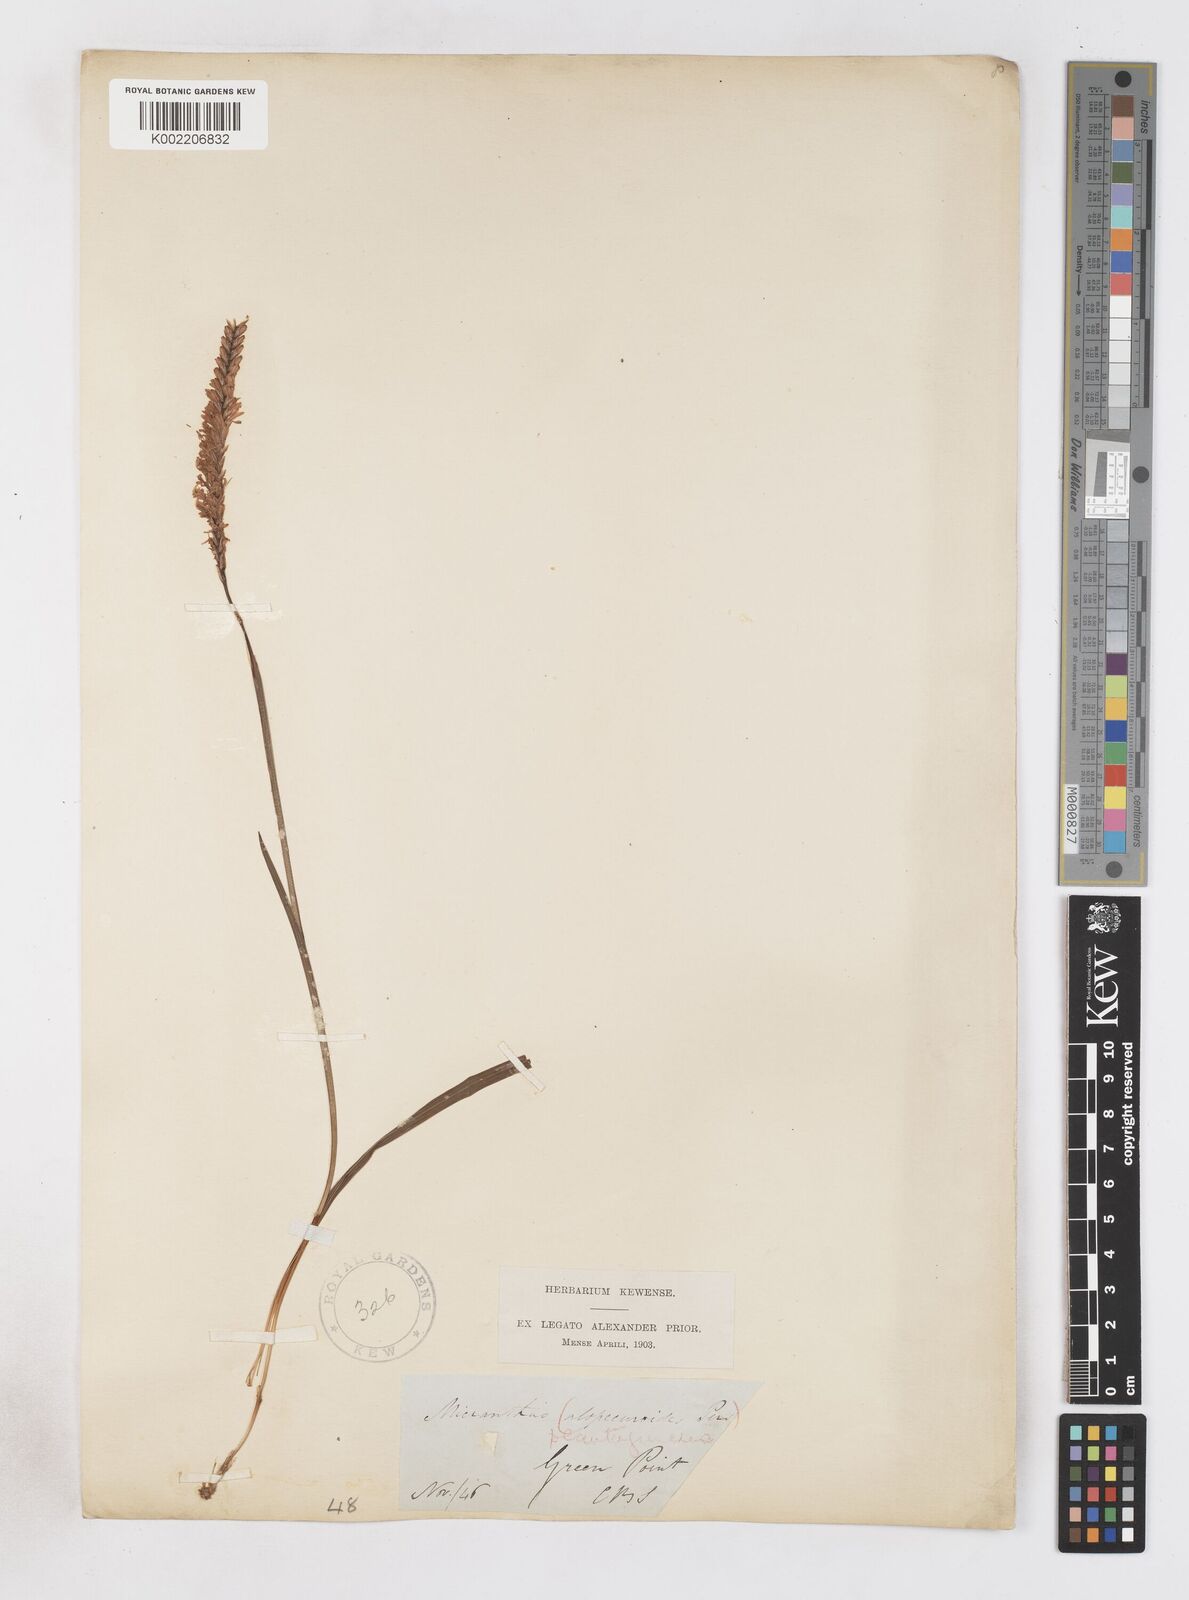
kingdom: Plantae
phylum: Tracheophyta
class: Liliopsida
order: Asparagales
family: Iridaceae
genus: Micranthus
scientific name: Micranthus alopecuroides
